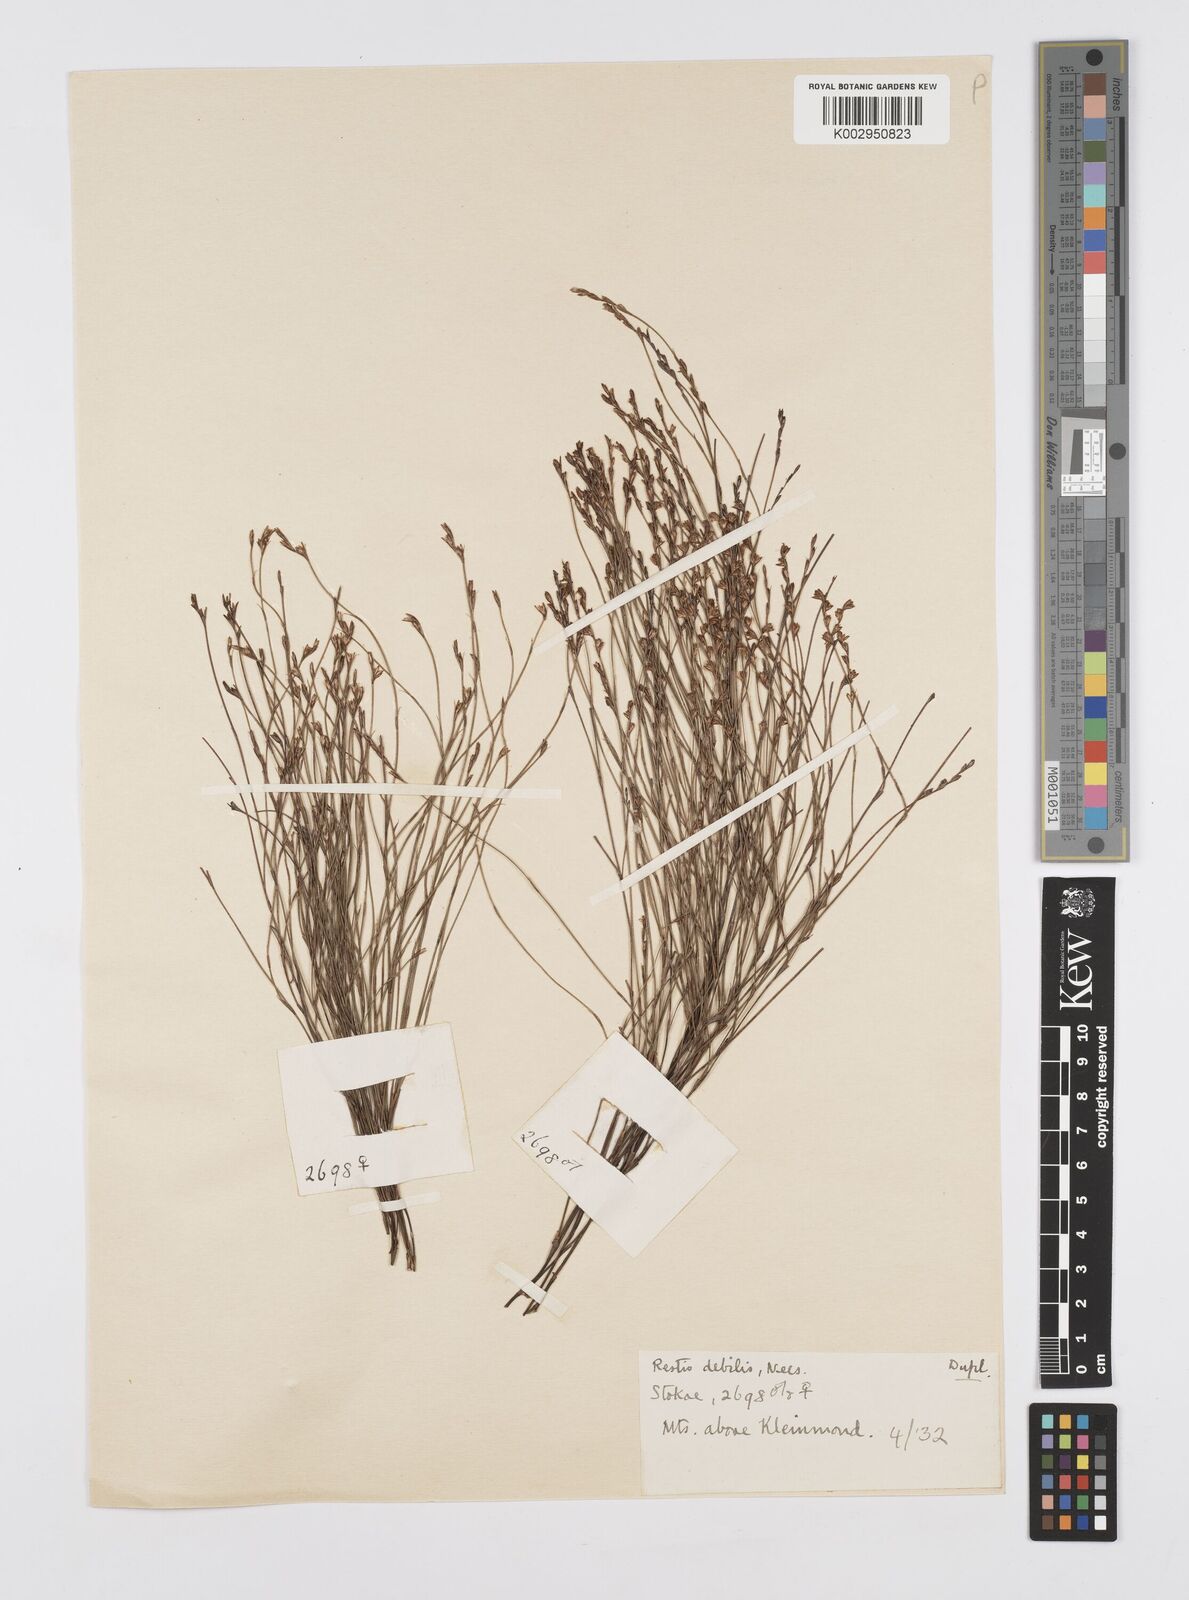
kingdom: Plantae
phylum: Tracheophyta
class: Liliopsida
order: Poales
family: Restionaceae
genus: Restio
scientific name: Restio debilis
